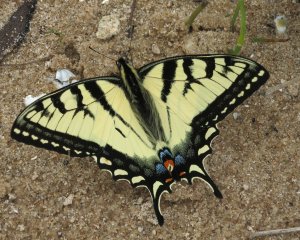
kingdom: Animalia
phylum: Arthropoda
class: Insecta
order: Lepidoptera
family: Papilionidae
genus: Pterourus
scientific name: Pterourus glaucus
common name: Eastern Tiger Swallowtail
